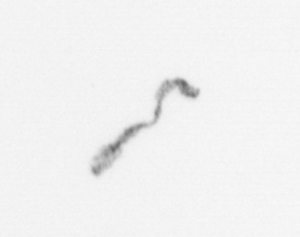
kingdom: Chromista
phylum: Ochrophyta
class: Bacillariophyceae
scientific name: Bacillariophyceae
